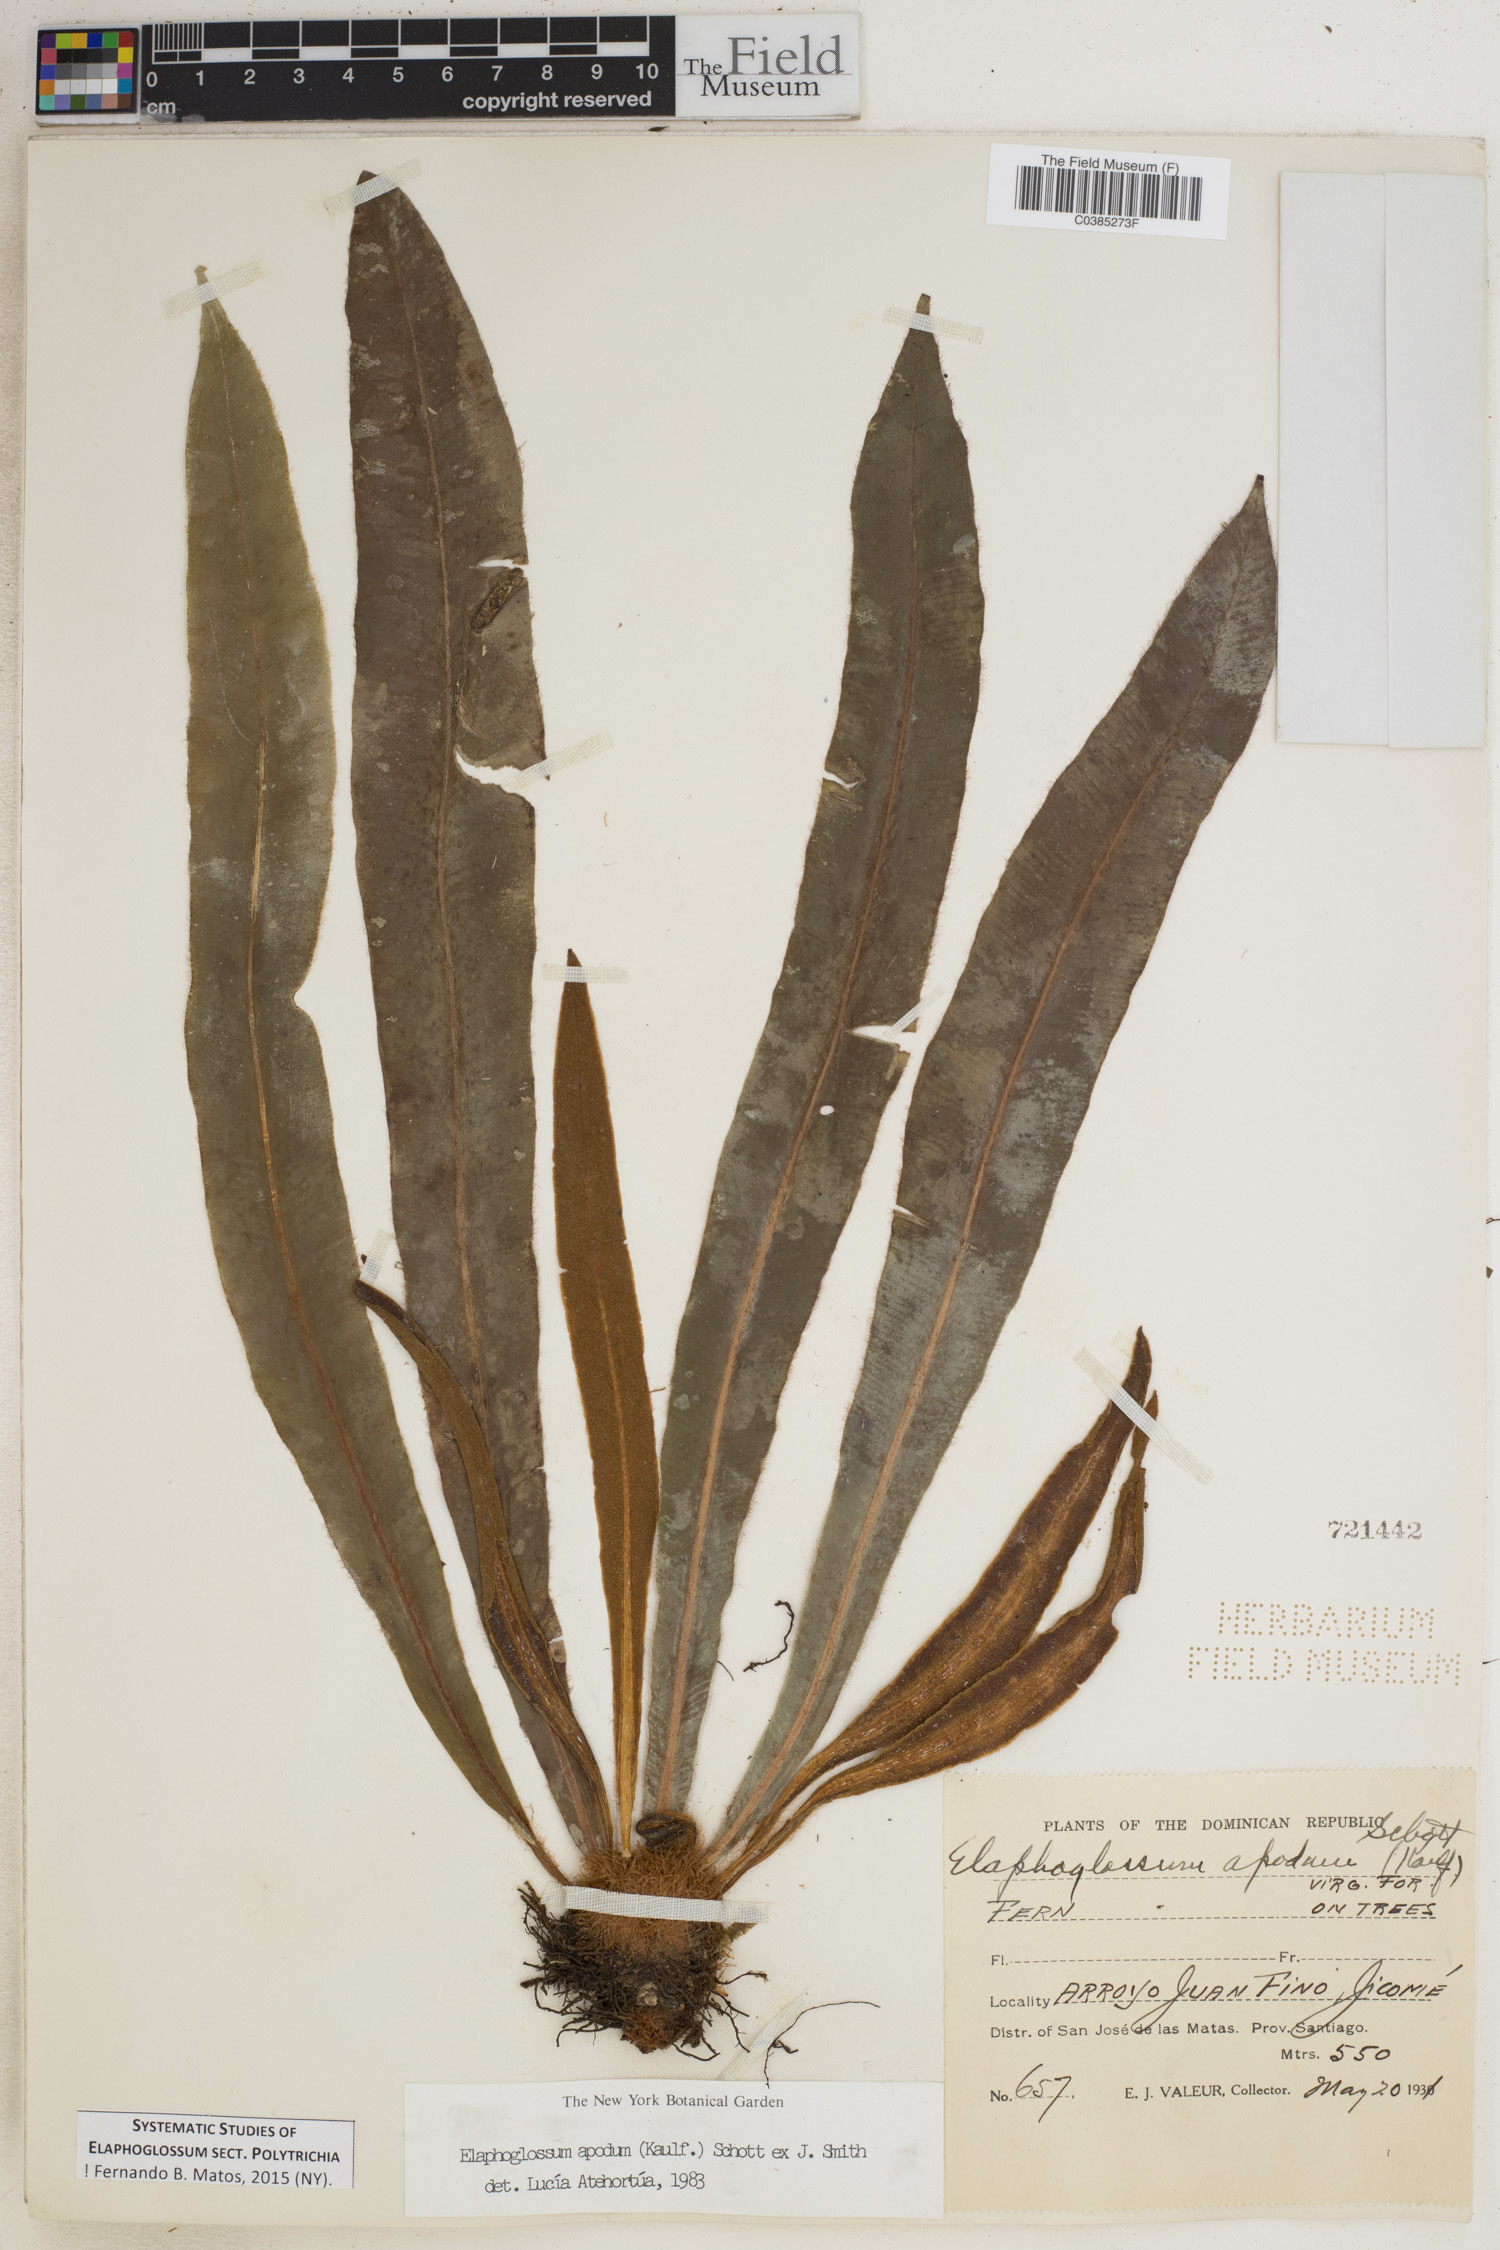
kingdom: Plantae
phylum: Tracheophyta
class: Polypodiopsida
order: Polypodiales
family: Dryopteridaceae
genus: Elaphoglossum
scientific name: Elaphoglossum polytrichum
